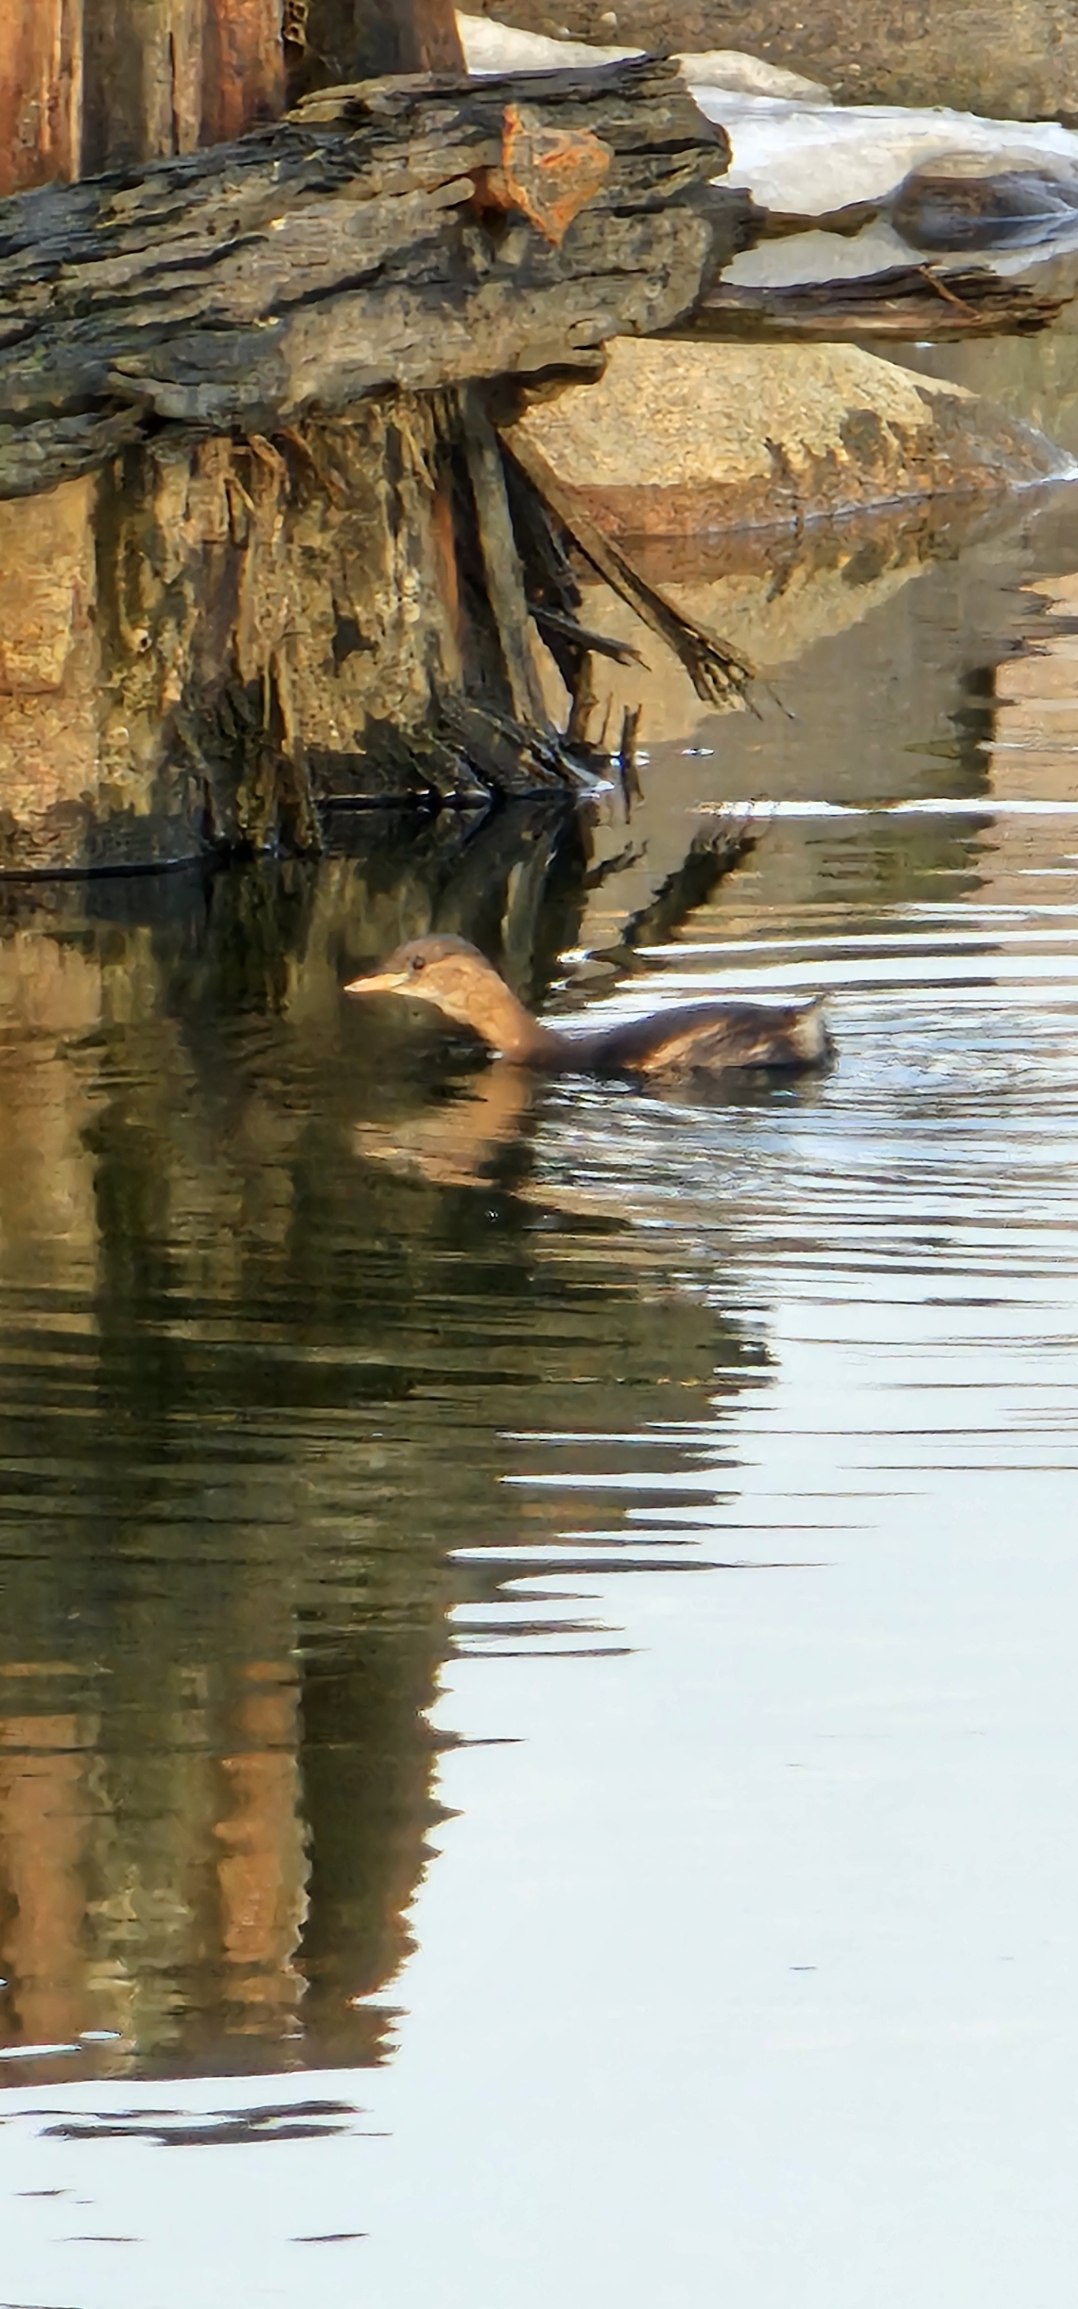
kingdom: Animalia
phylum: Chordata
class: Aves
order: Podicipediformes
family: Podicipedidae
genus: Tachybaptus
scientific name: Tachybaptus ruficollis
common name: Lille lappedykker
